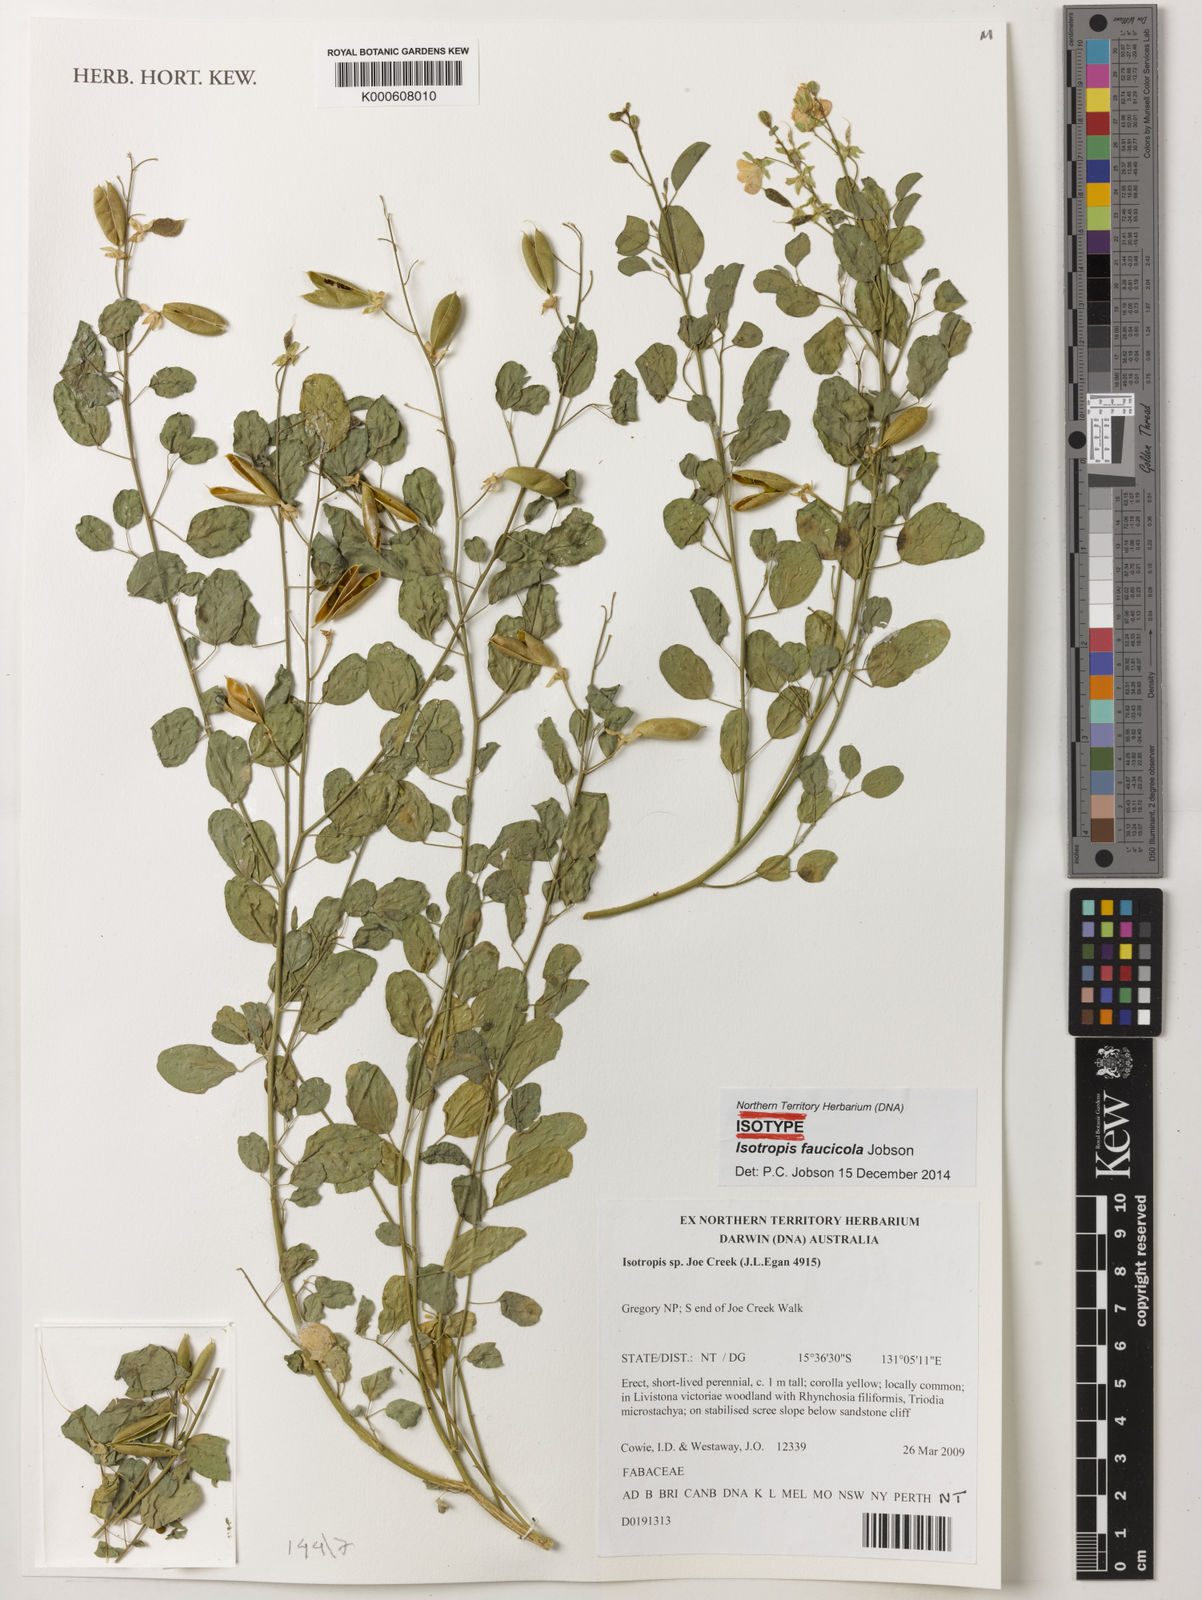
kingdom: Plantae
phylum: Tracheophyta
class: Magnoliopsida
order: Fabales
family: Fabaceae
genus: Isotropis
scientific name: Isotropis faucicola
